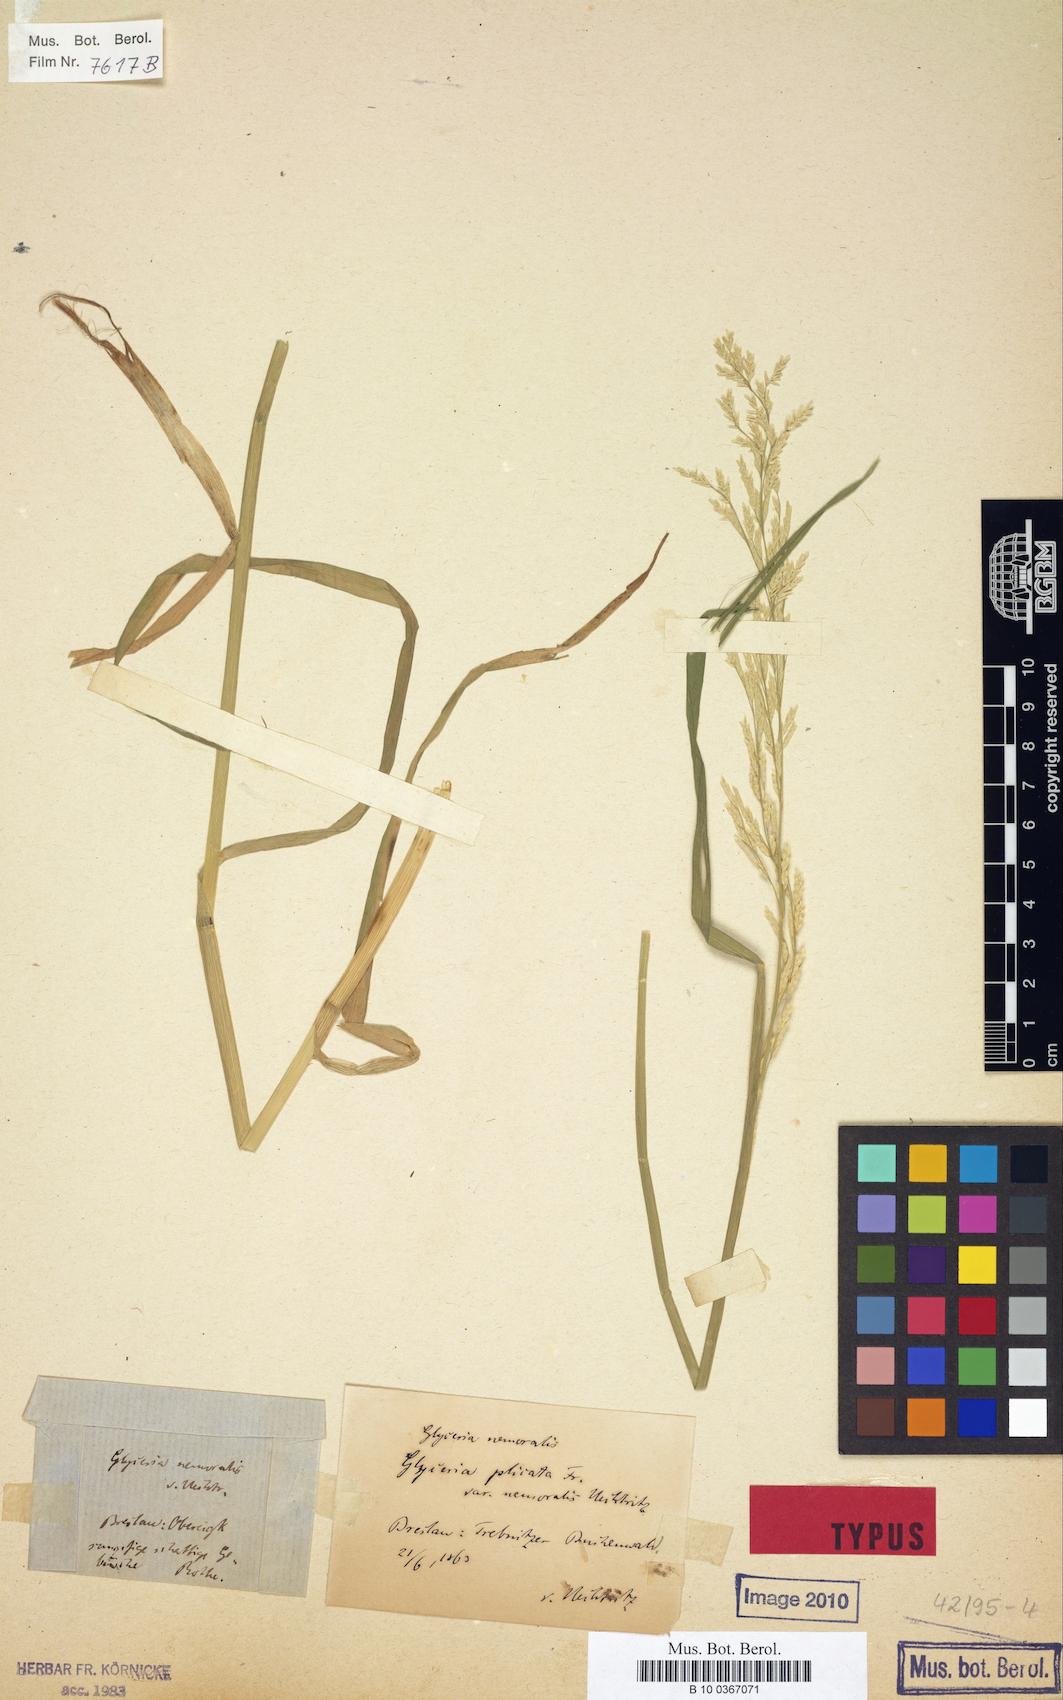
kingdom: Plantae
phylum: Tracheophyta
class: Liliopsida
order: Poales
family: Poaceae
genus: Glyceria
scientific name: Glyceria nemoralis
